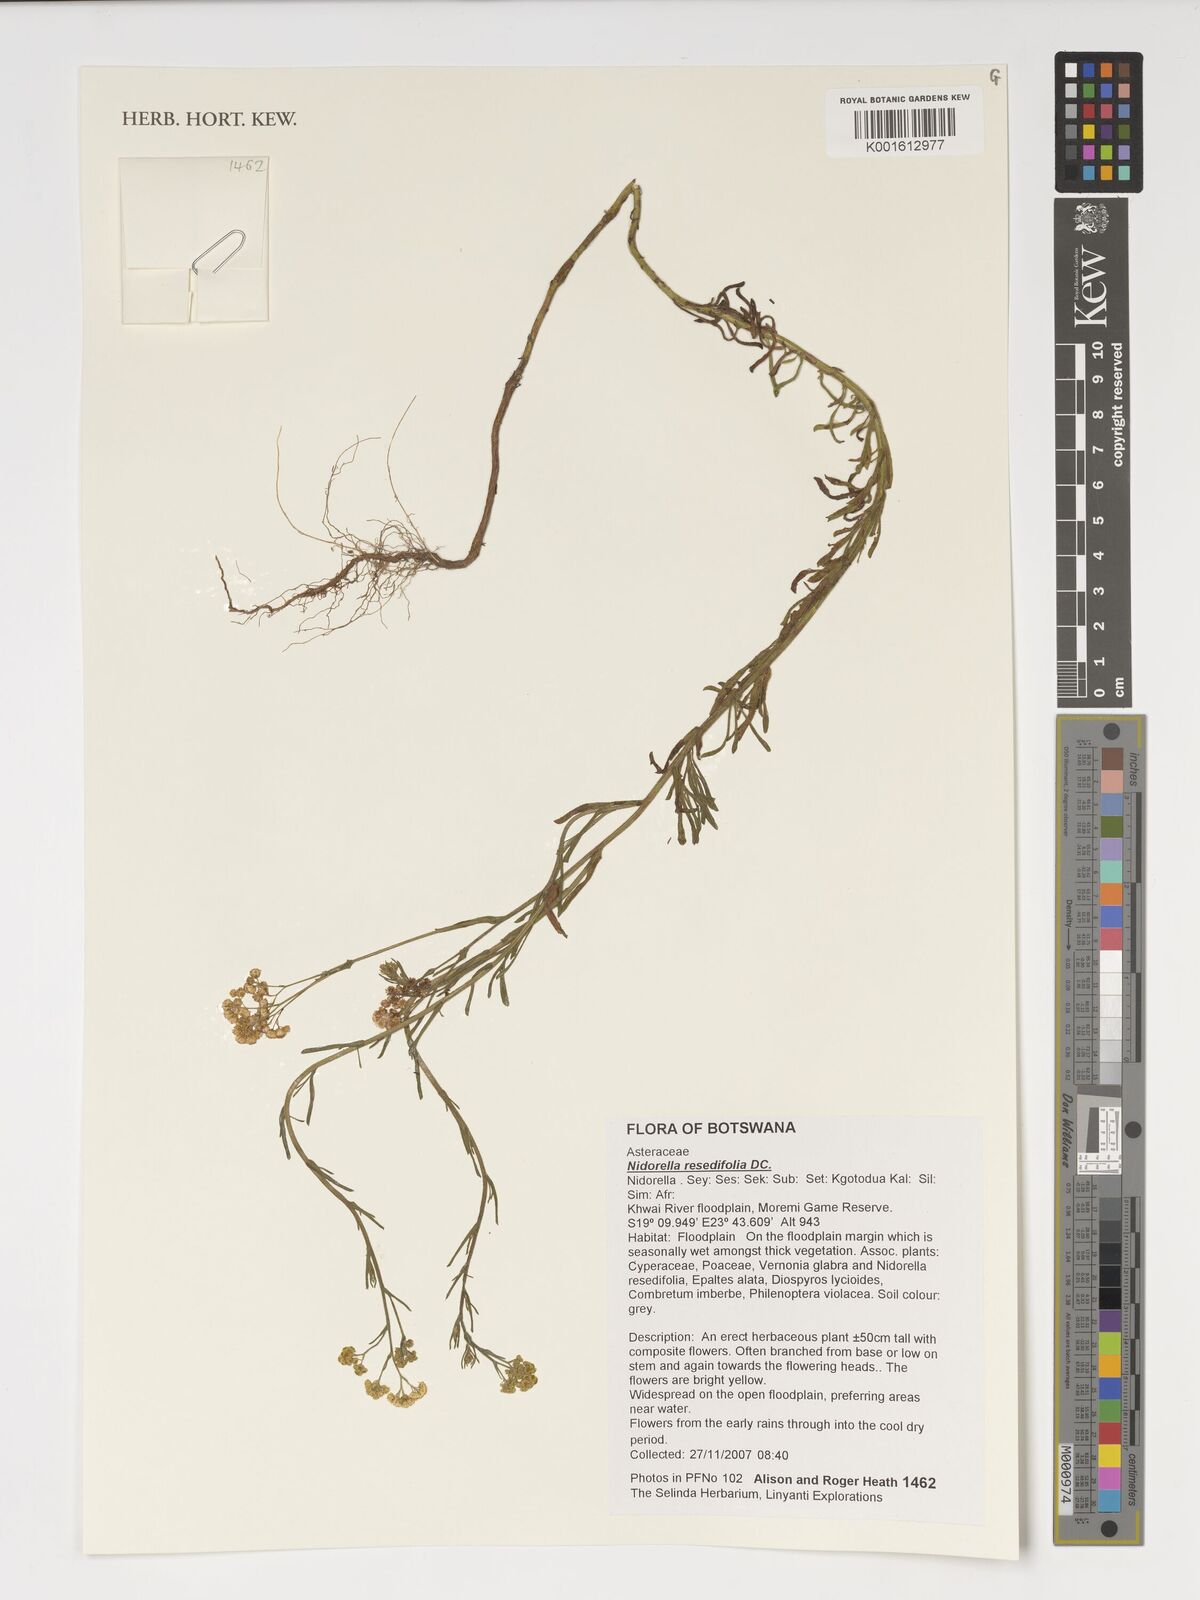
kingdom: Plantae
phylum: Tracheophyta
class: Magnoliopsida
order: Asterales
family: Asteraceae
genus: Nidorella
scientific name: Nidorella resedifolia
